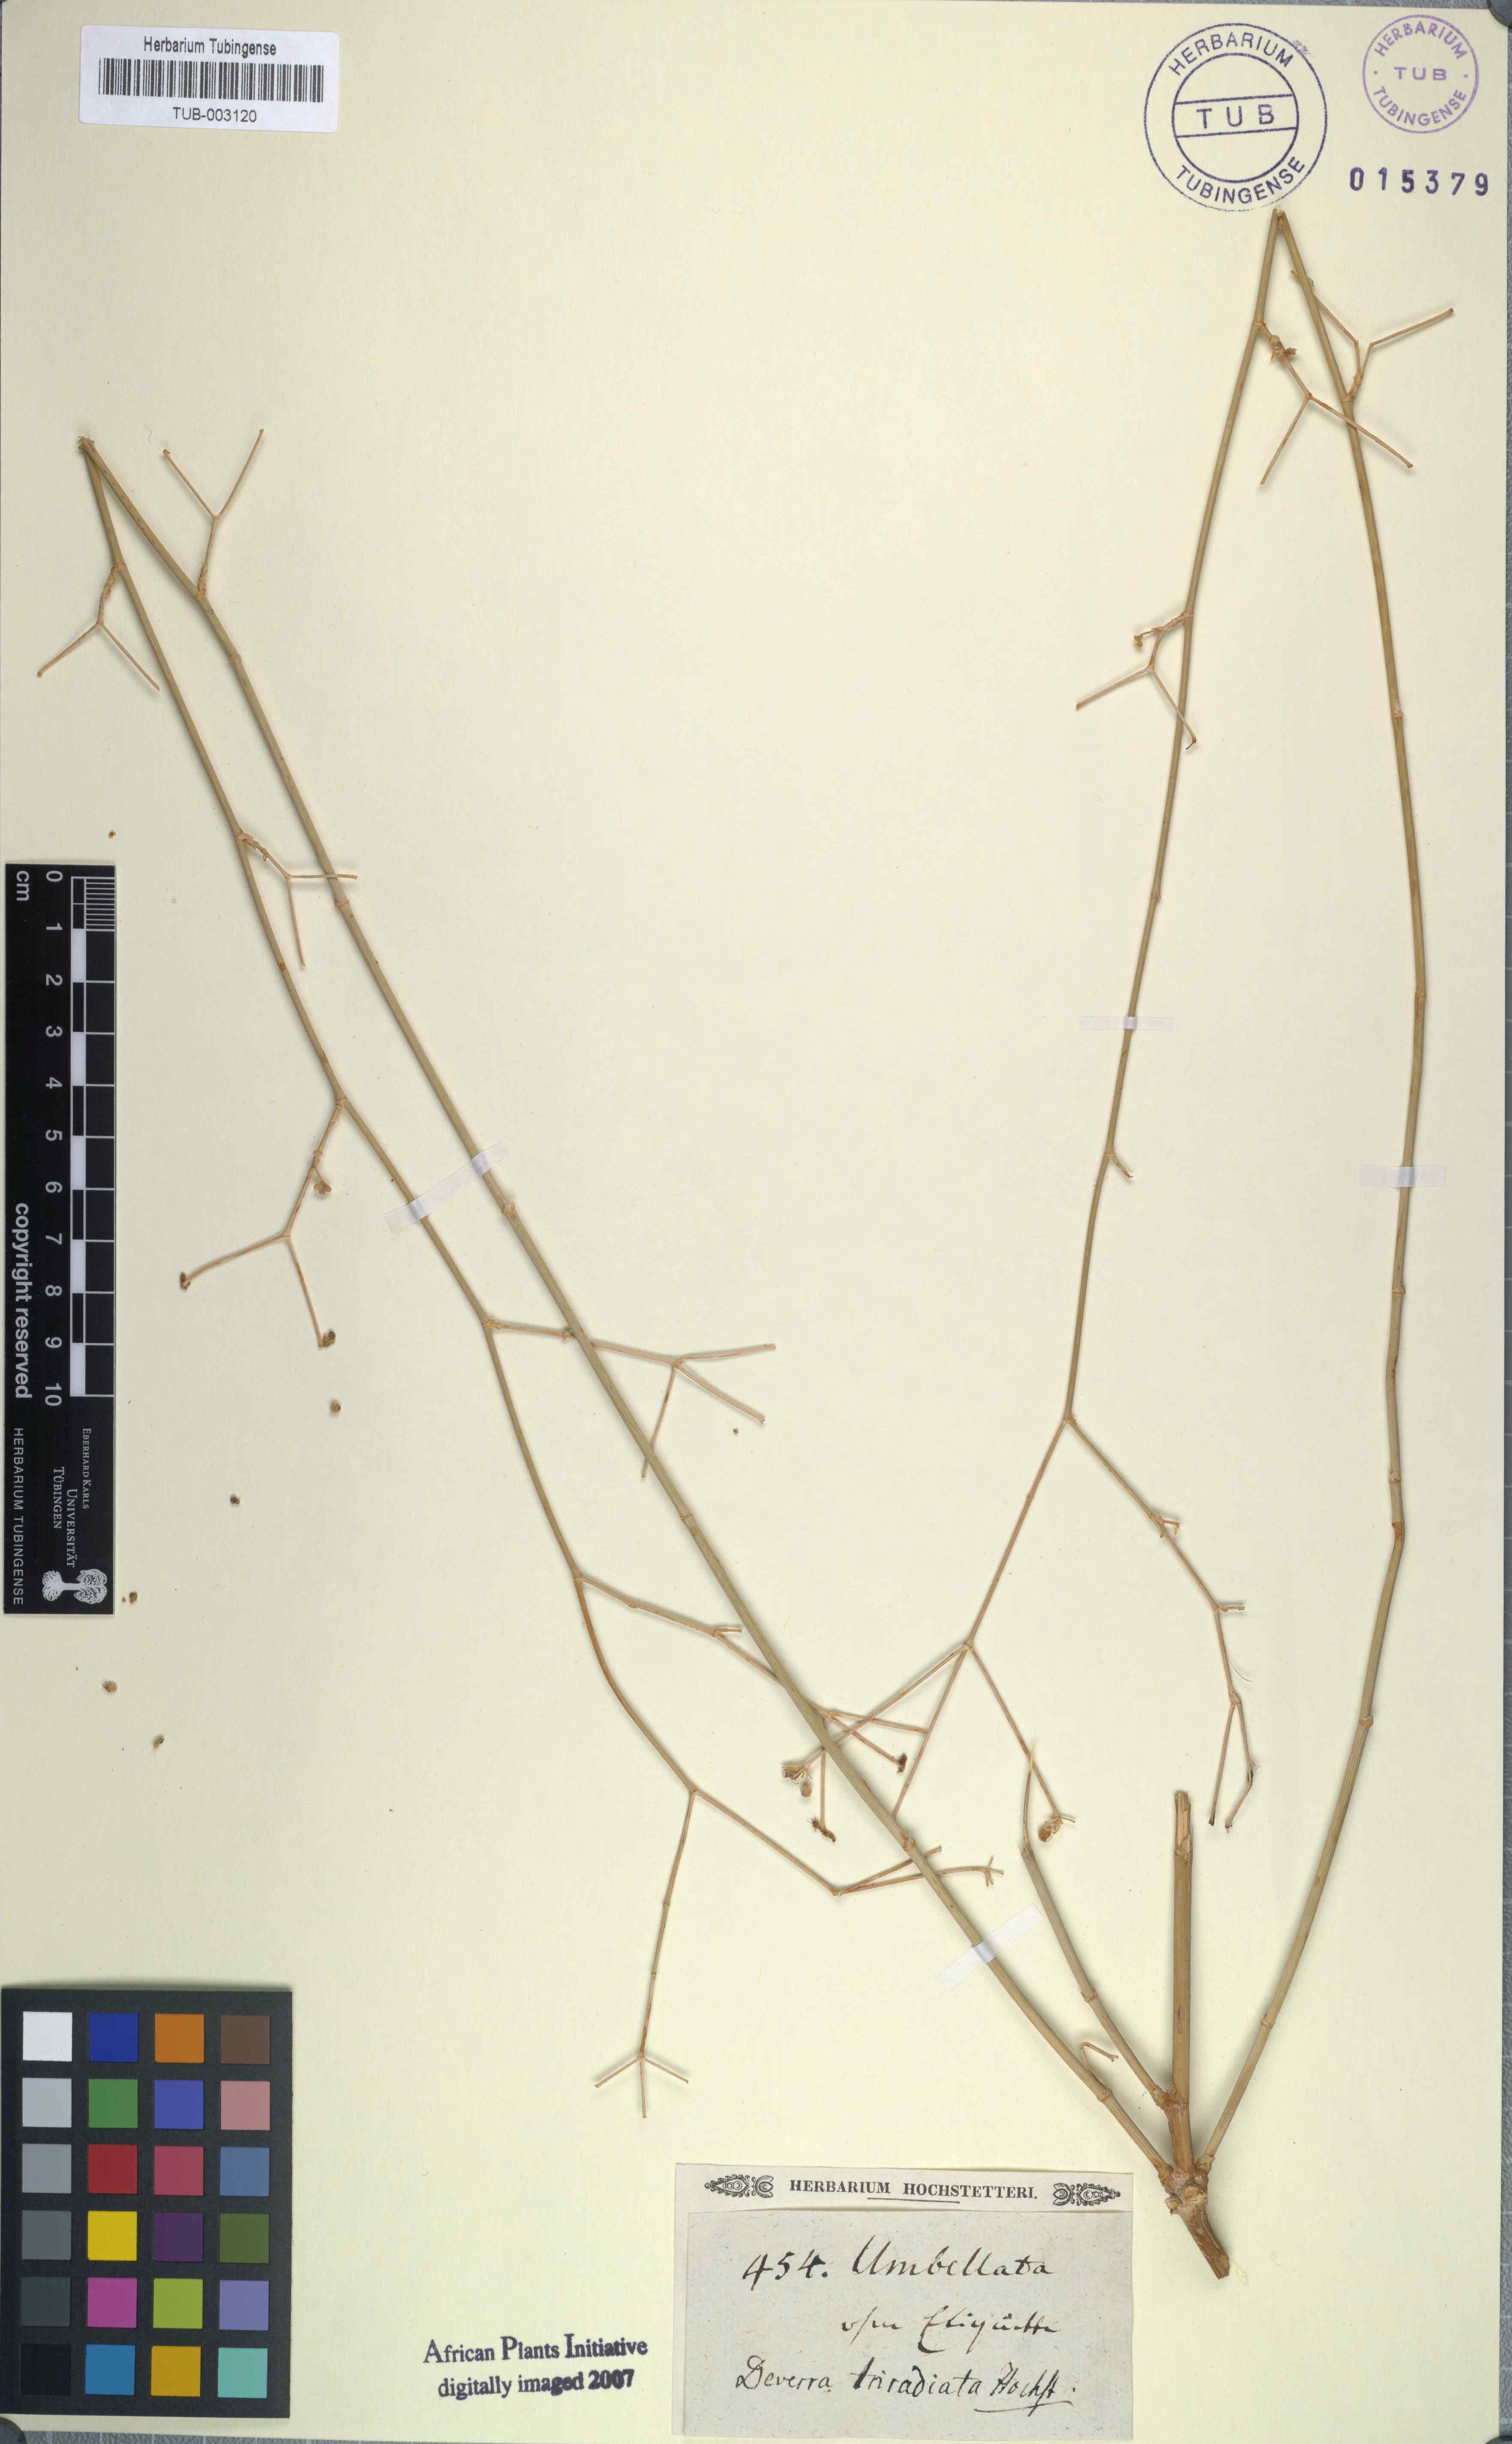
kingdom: Plantae
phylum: Tracheophyta
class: Magnoliopsida
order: Apiales
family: Apiaceae
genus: Deverra
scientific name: Deverra triradiata
